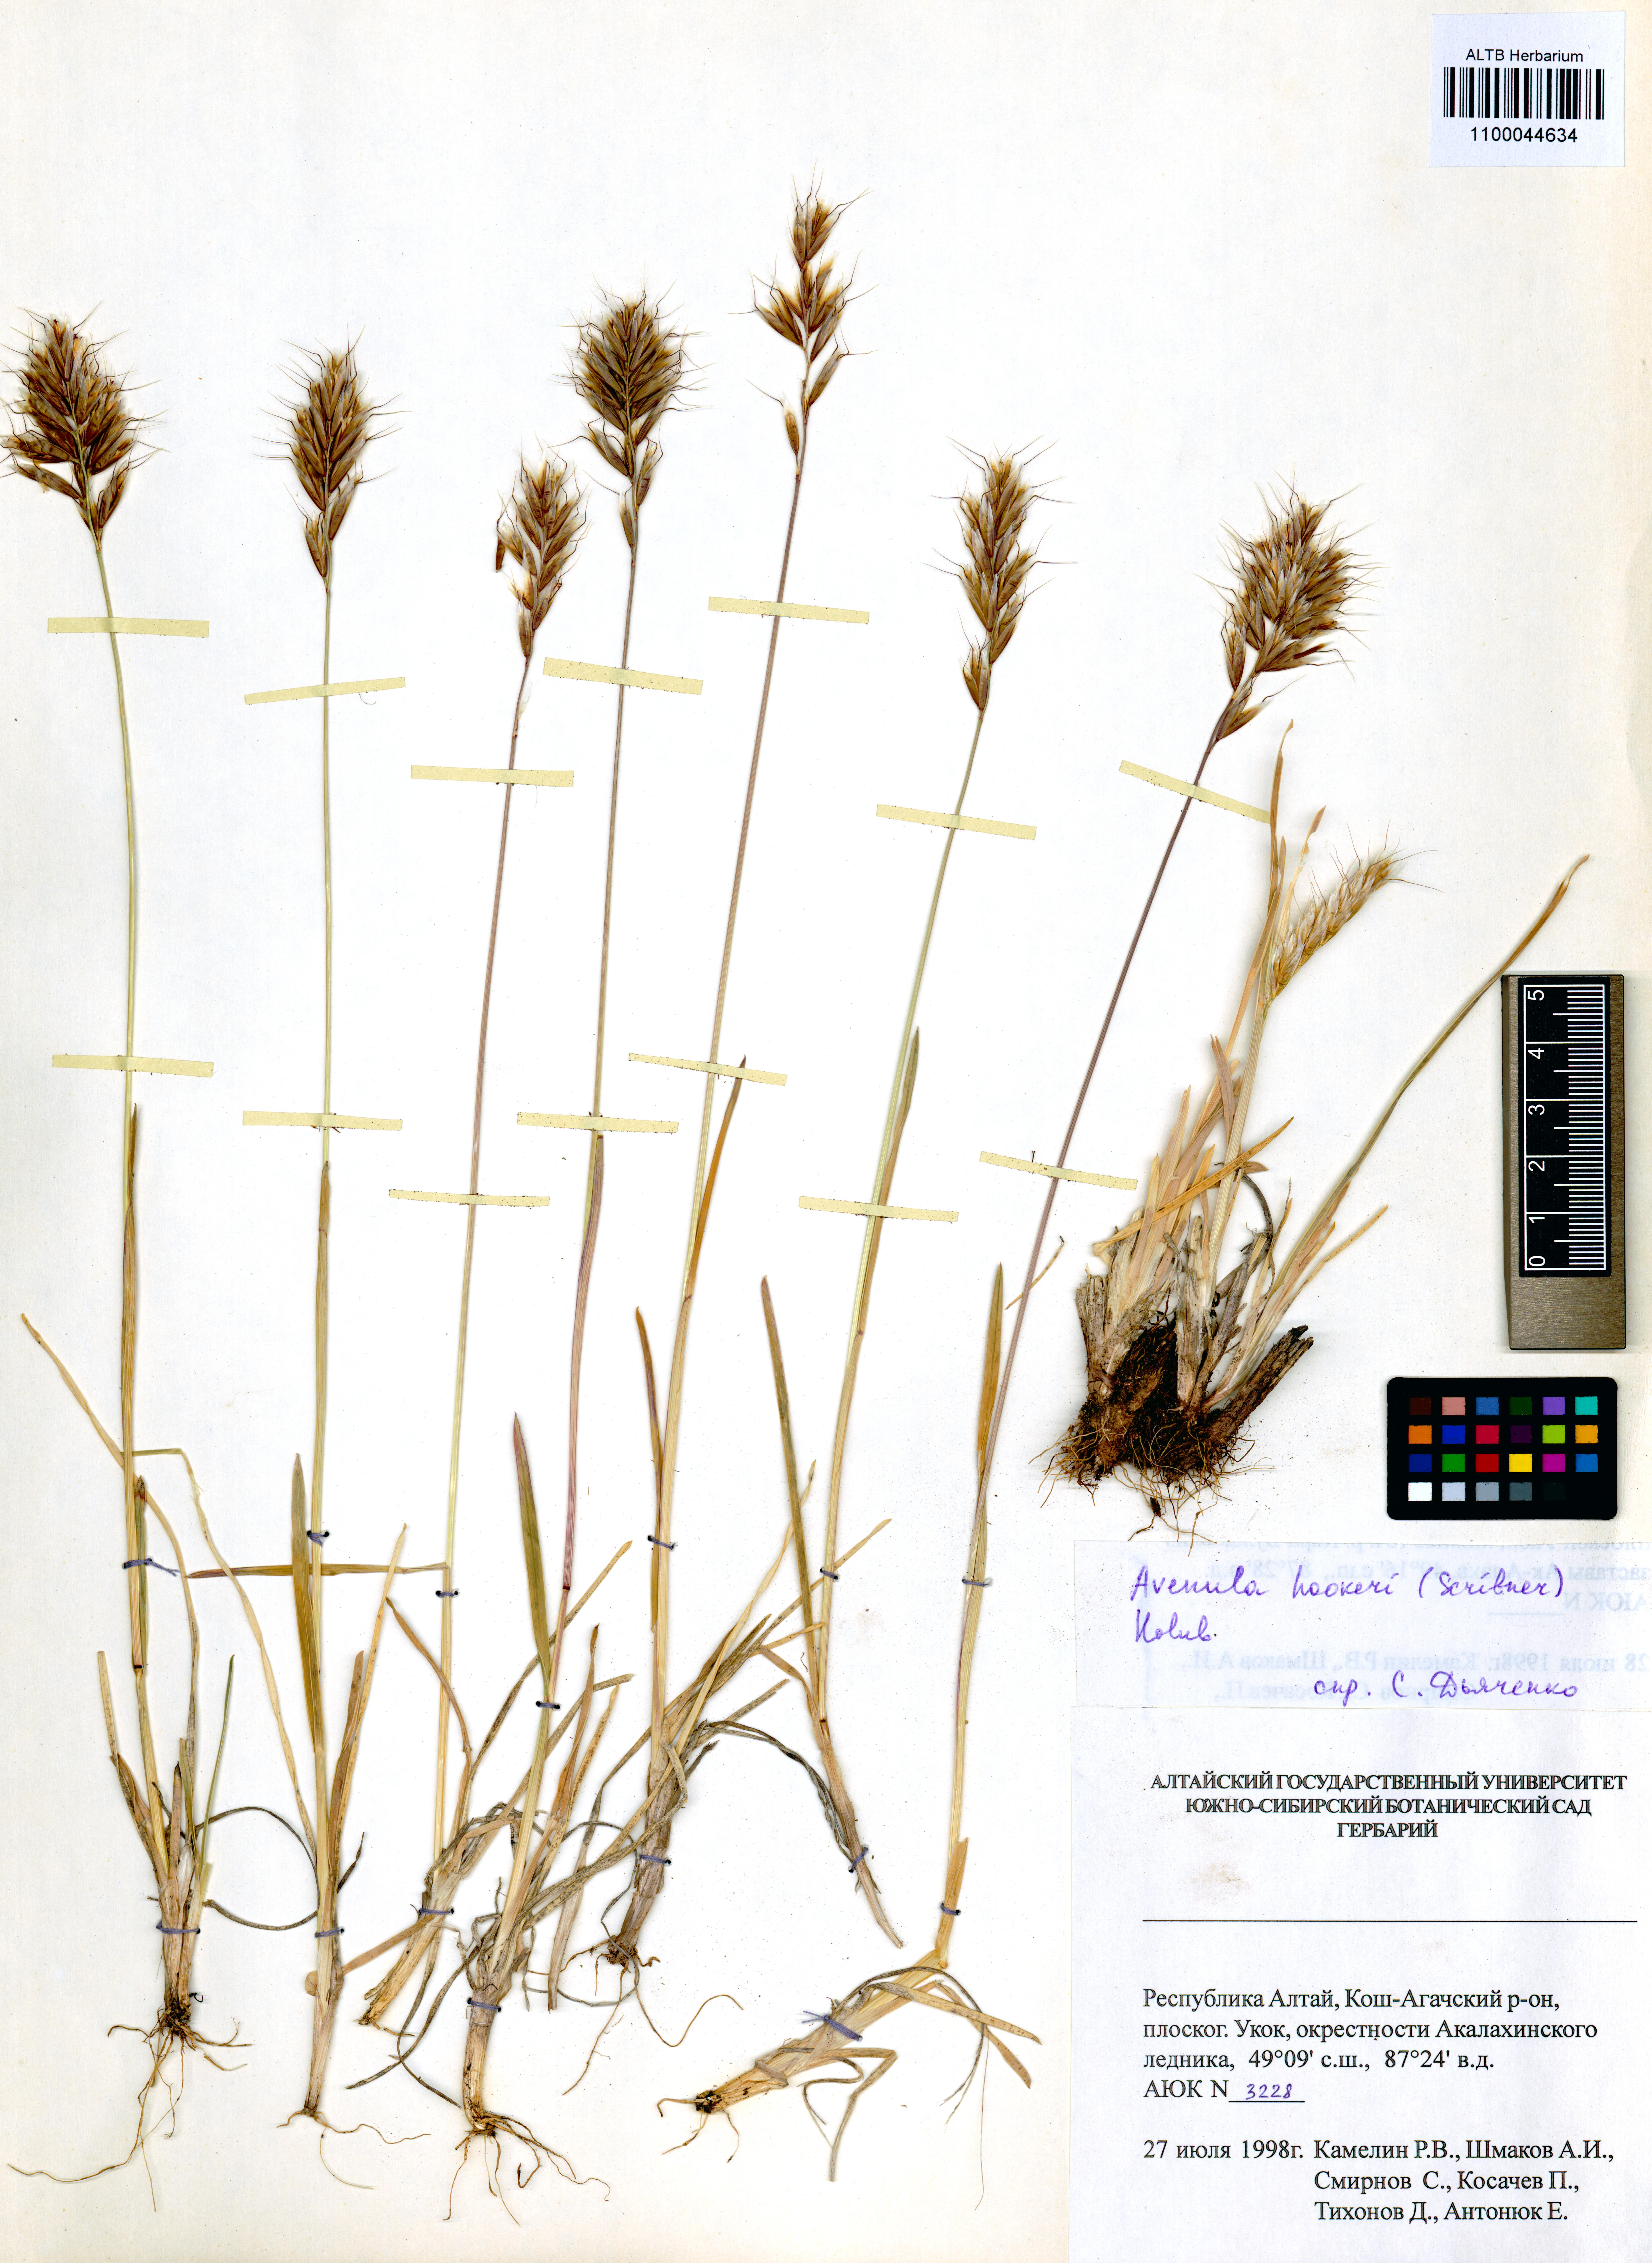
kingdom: Plantae
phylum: Tracheophyta
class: Liliopsida
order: Poales
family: Poaceae
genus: Helictochloa
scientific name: Helictochloa hookeri
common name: Hooker's alpine oatgrass
